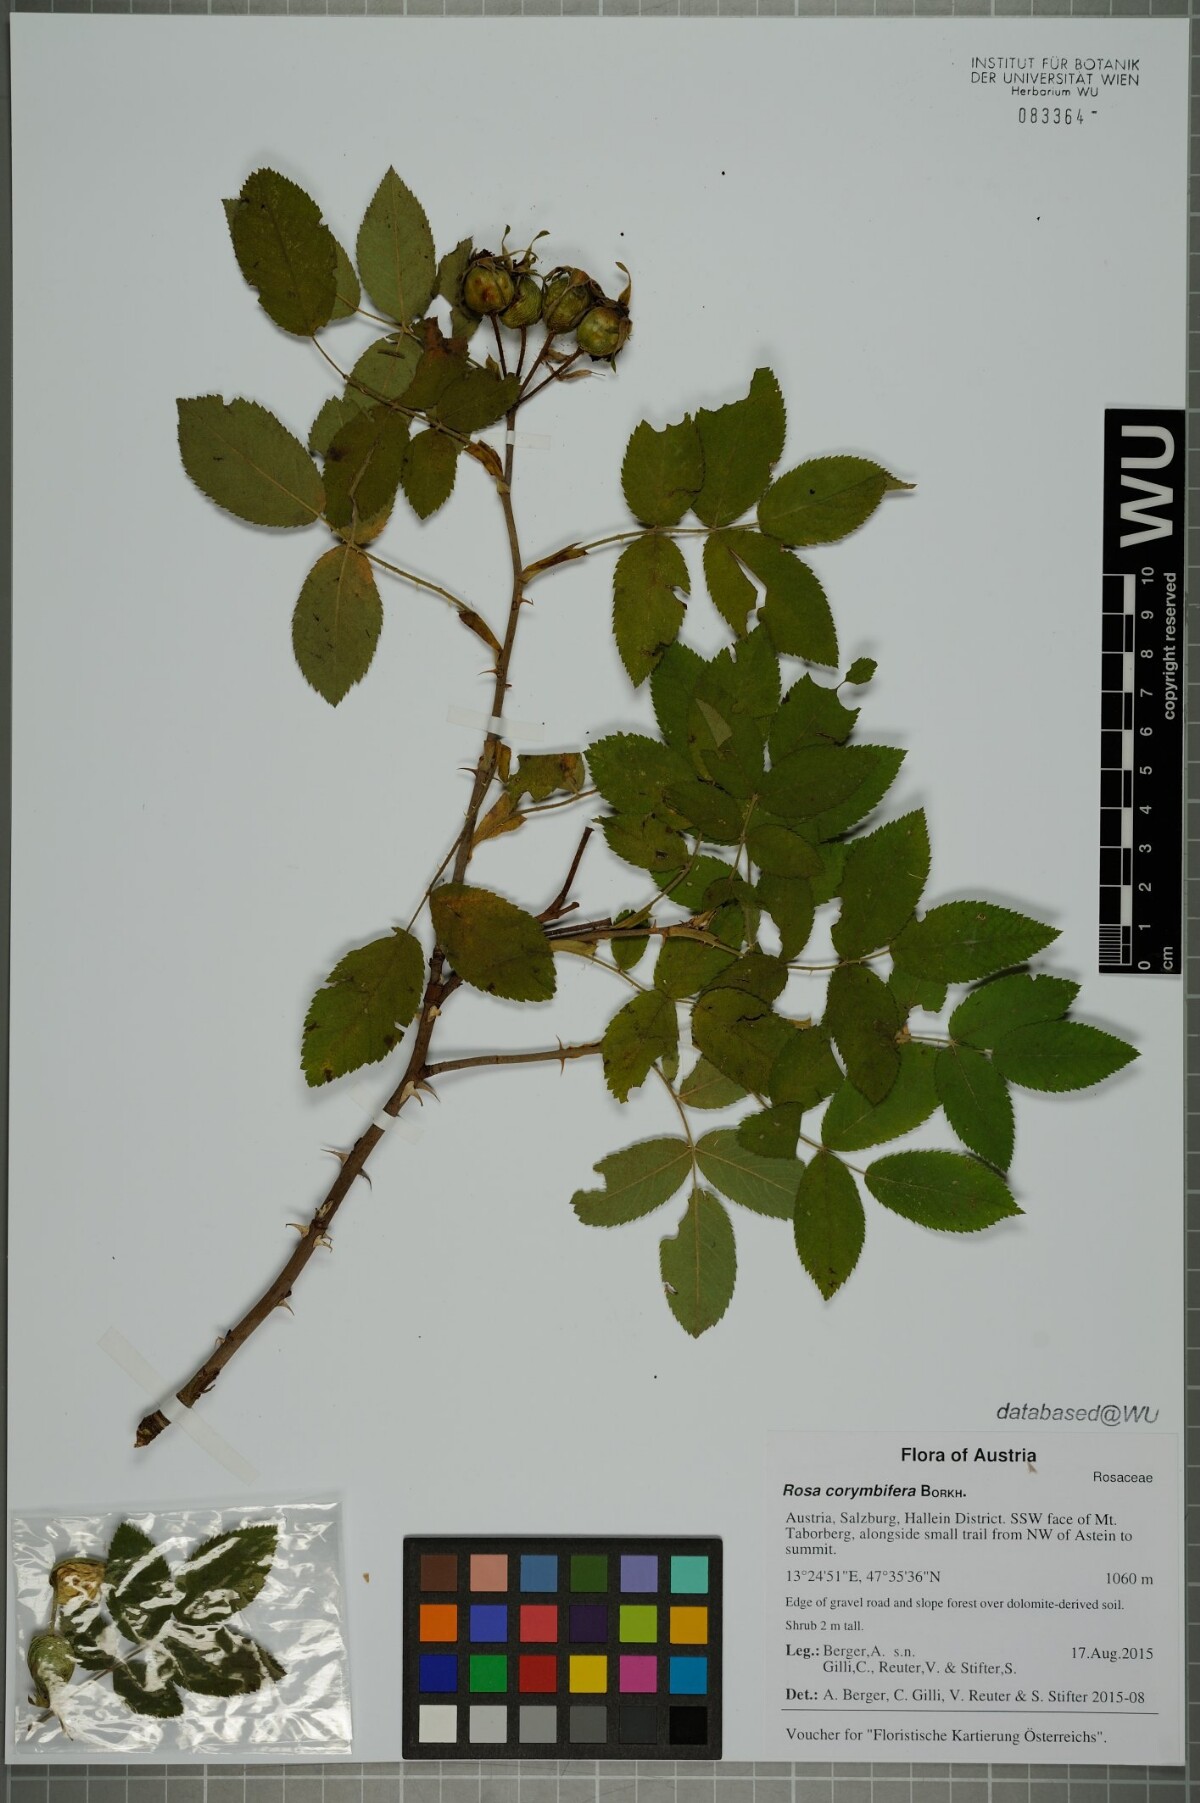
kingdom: Plantae
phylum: Tracheophyta
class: Magnoliopsida
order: Rosales
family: Rosaceae
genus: Rosa
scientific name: Rosa corymbifera
